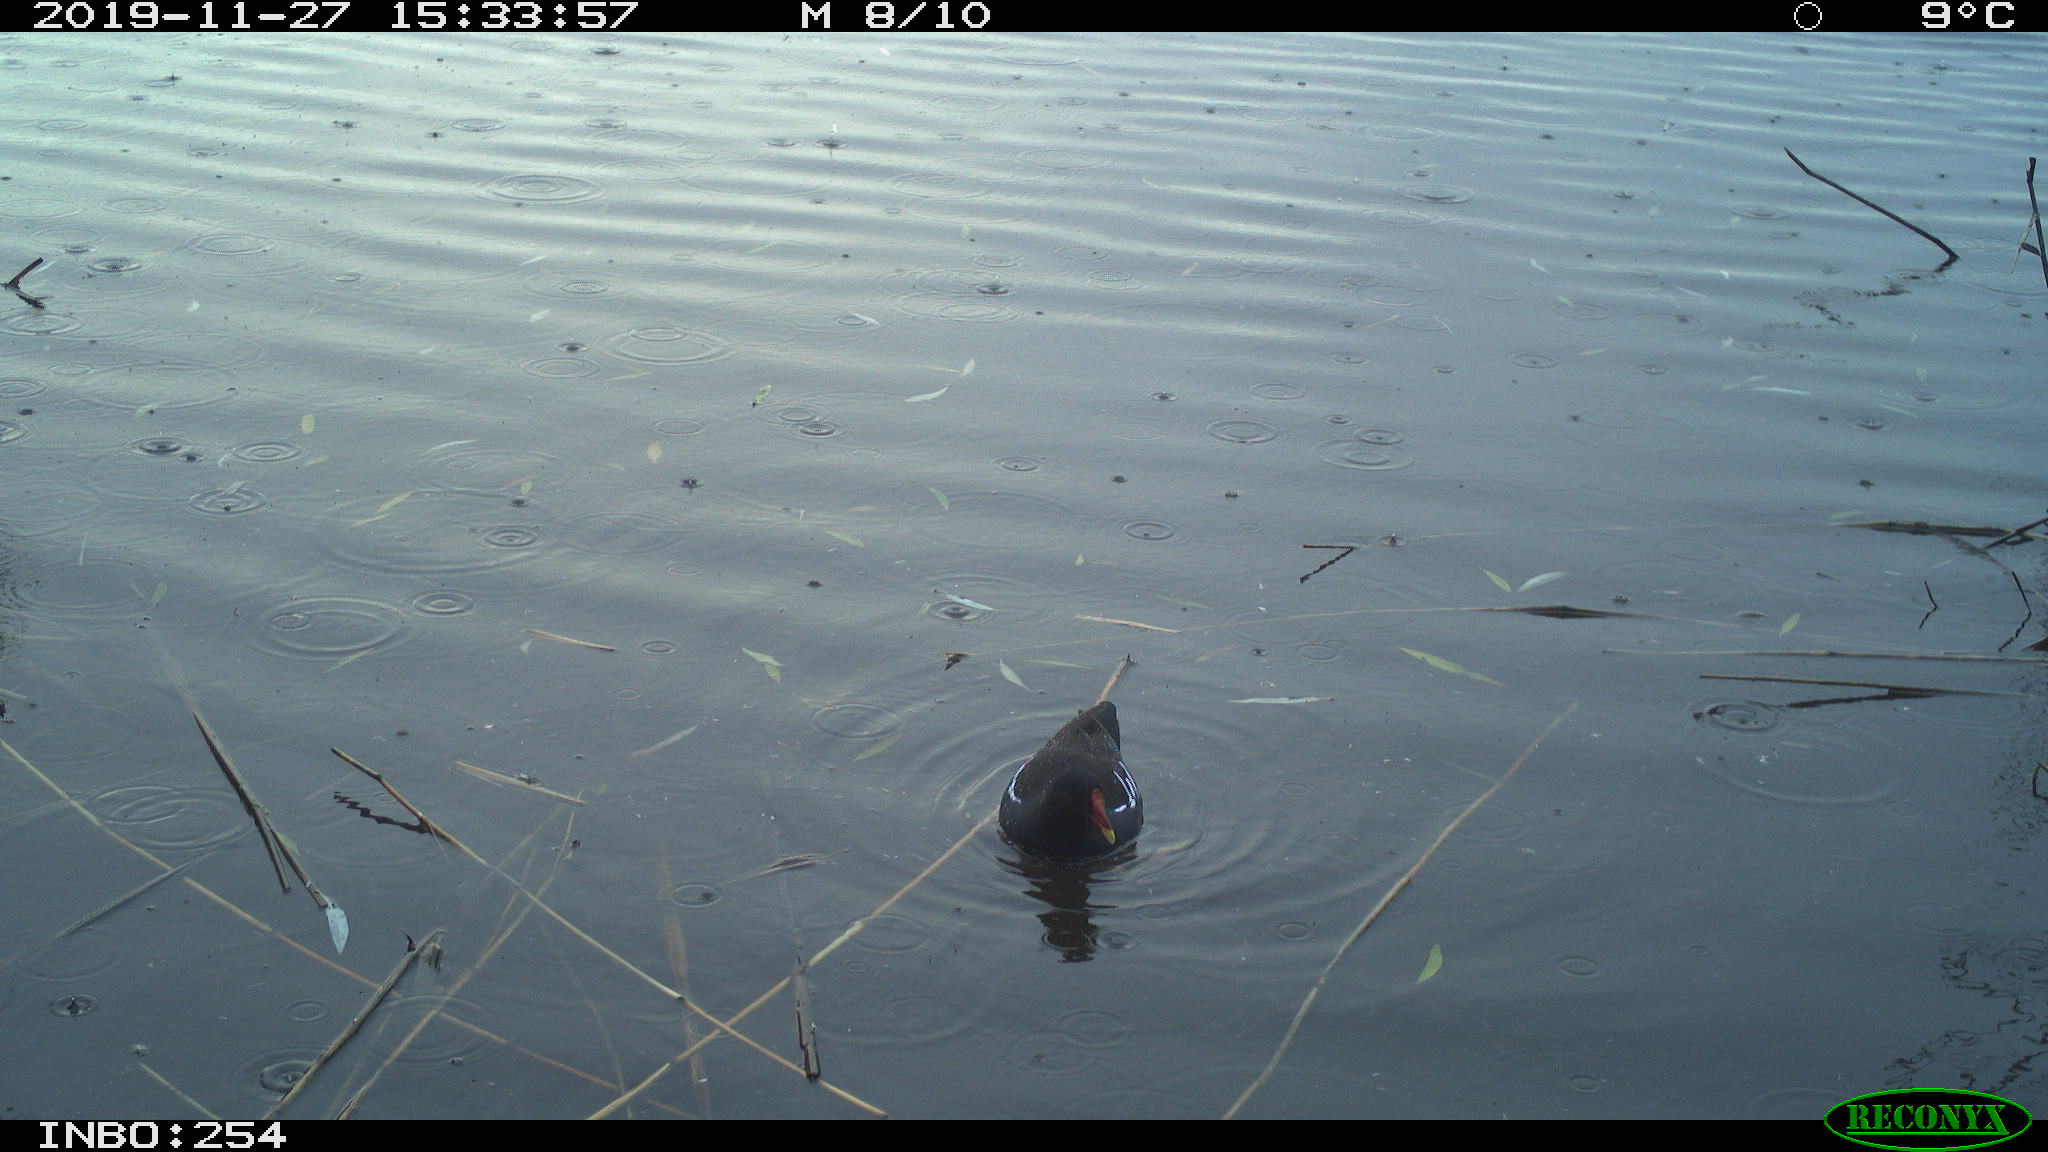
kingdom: Animalia
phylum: Chordata
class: Aves
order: Gruiformes
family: Rallidae
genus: Gallinula
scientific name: Gallinula chloropus
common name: Common moorhen
